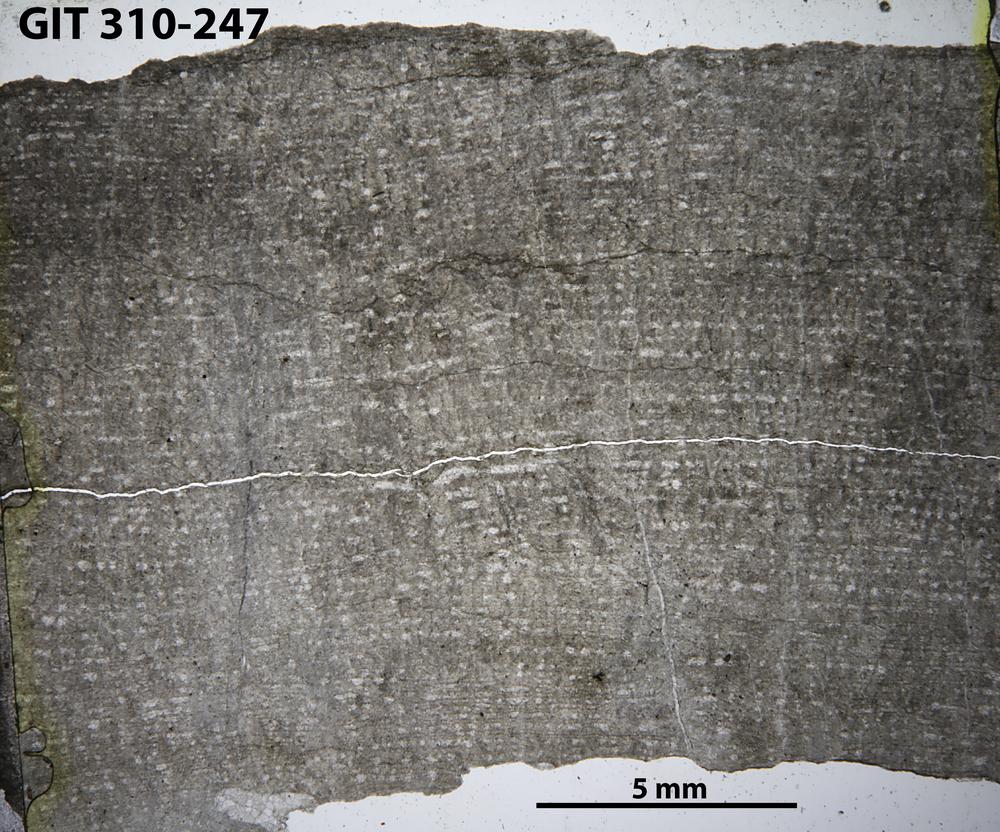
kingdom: Animalia
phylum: Porifera
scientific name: Porifera
